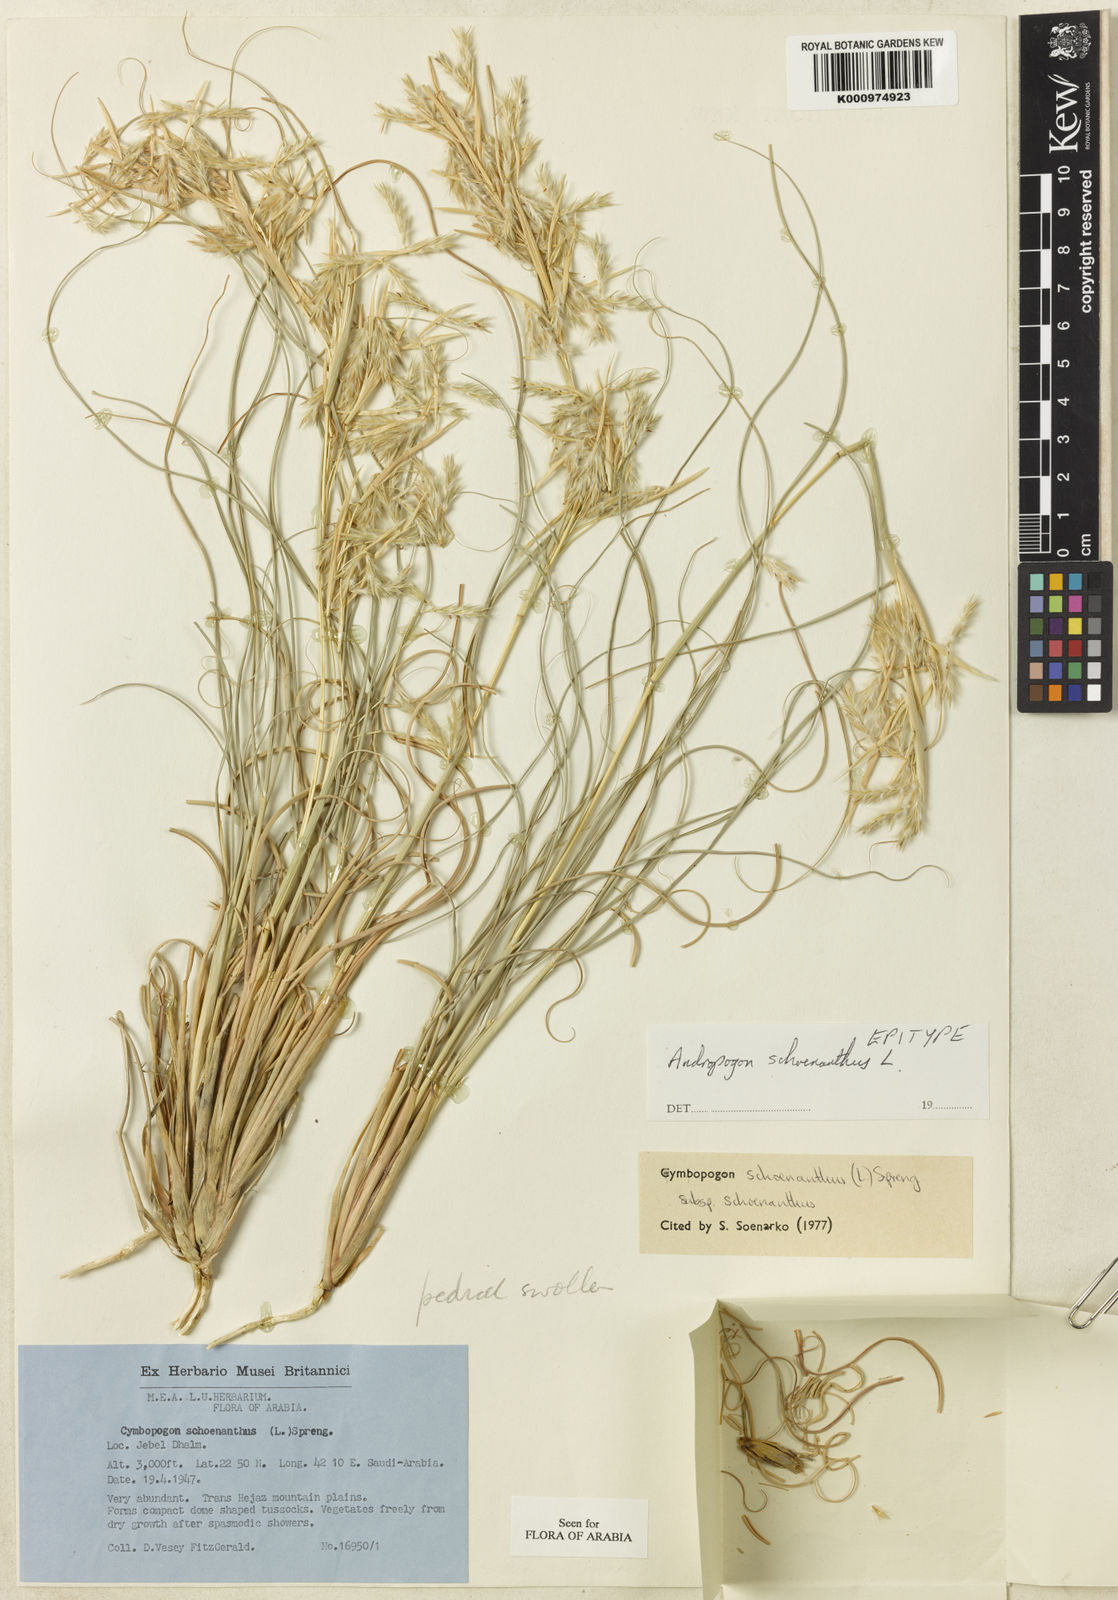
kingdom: Plantae
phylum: Tracheophyta
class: Liliopsida
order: Poales
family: Poaceae
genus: Cymbopogon
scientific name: Cymbopogon schoenanthus
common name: Geranium grass
